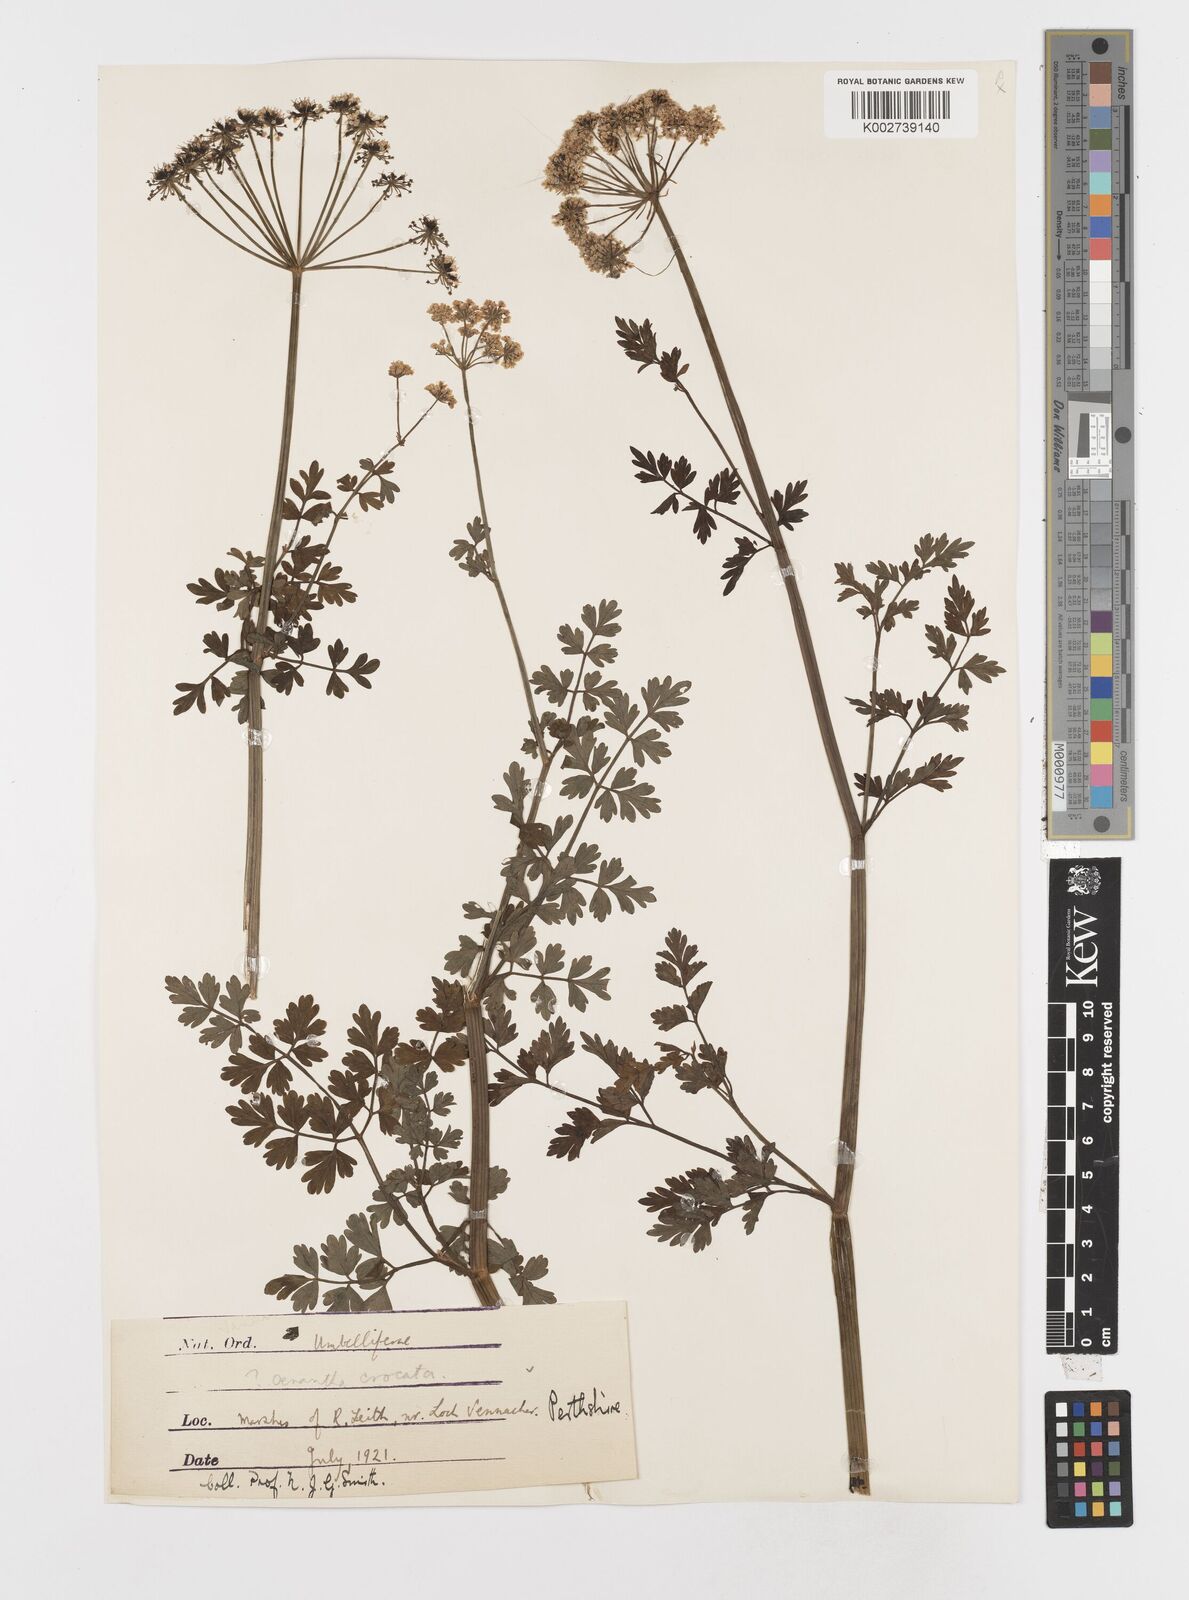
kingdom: Plantae
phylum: Tracheophyta
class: Magnoliopsida
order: Apiales
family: Apiaceae
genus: Oenanthe
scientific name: Oenanthe crocata
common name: Hemlock water-dropwort
